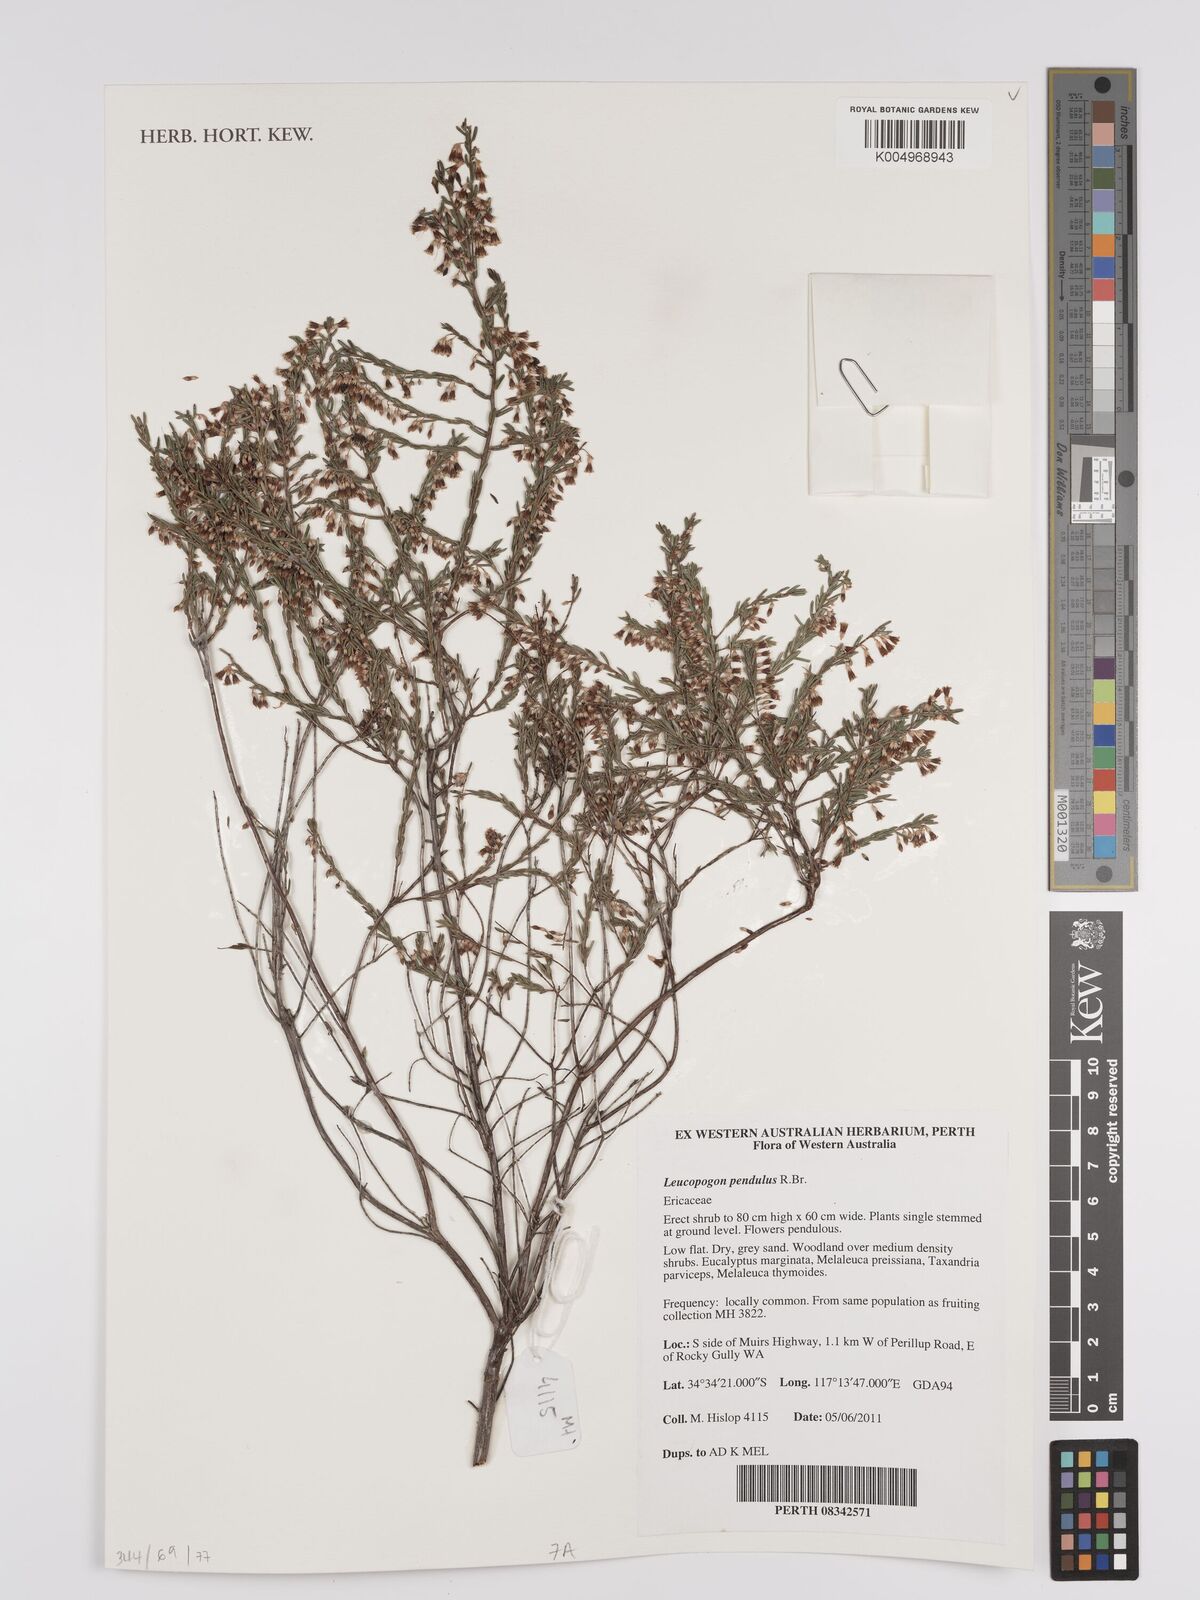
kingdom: Plantae
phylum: Tracheophyta
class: Magnoliopsida
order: Ericales
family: Ericaceae
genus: Styphelia
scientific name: Styphelia pendula
